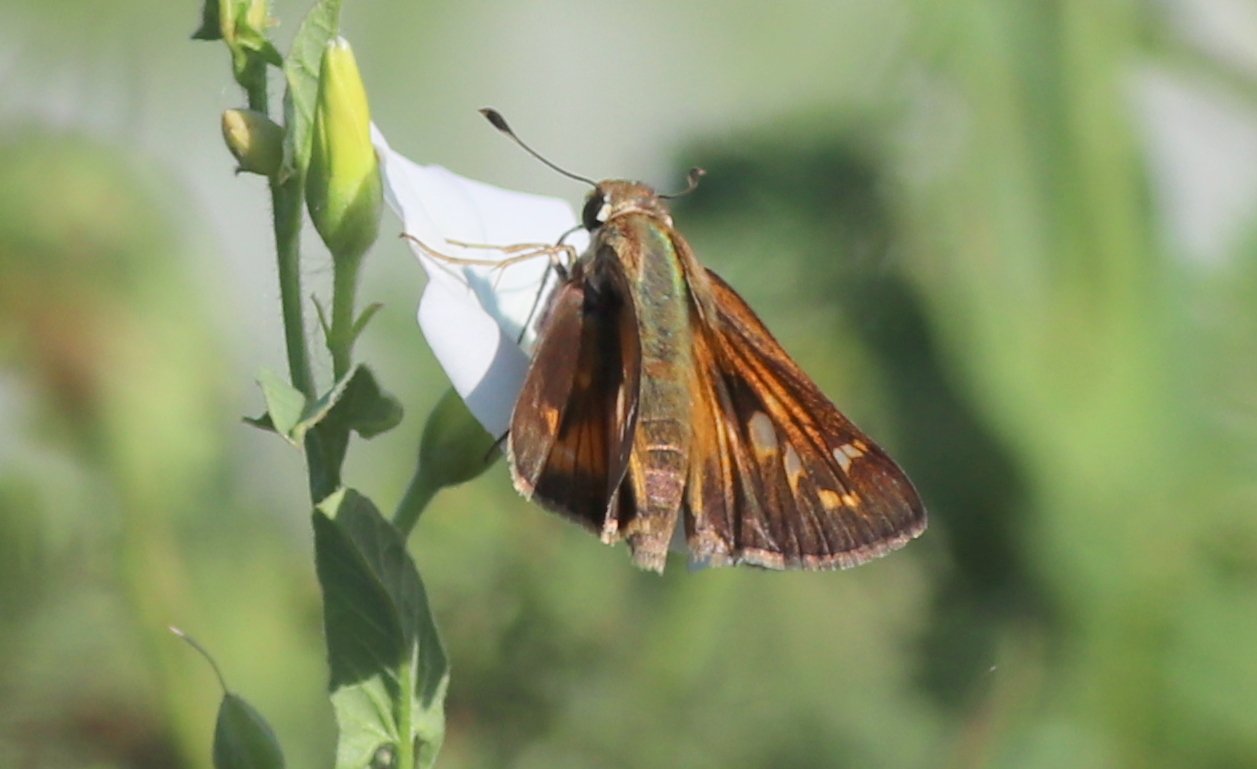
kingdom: Animalia
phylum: Arthropoda
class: Insecta
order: Lepidoptera
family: Hesperiidae
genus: Atalopedes
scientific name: Atalopedes campestris
